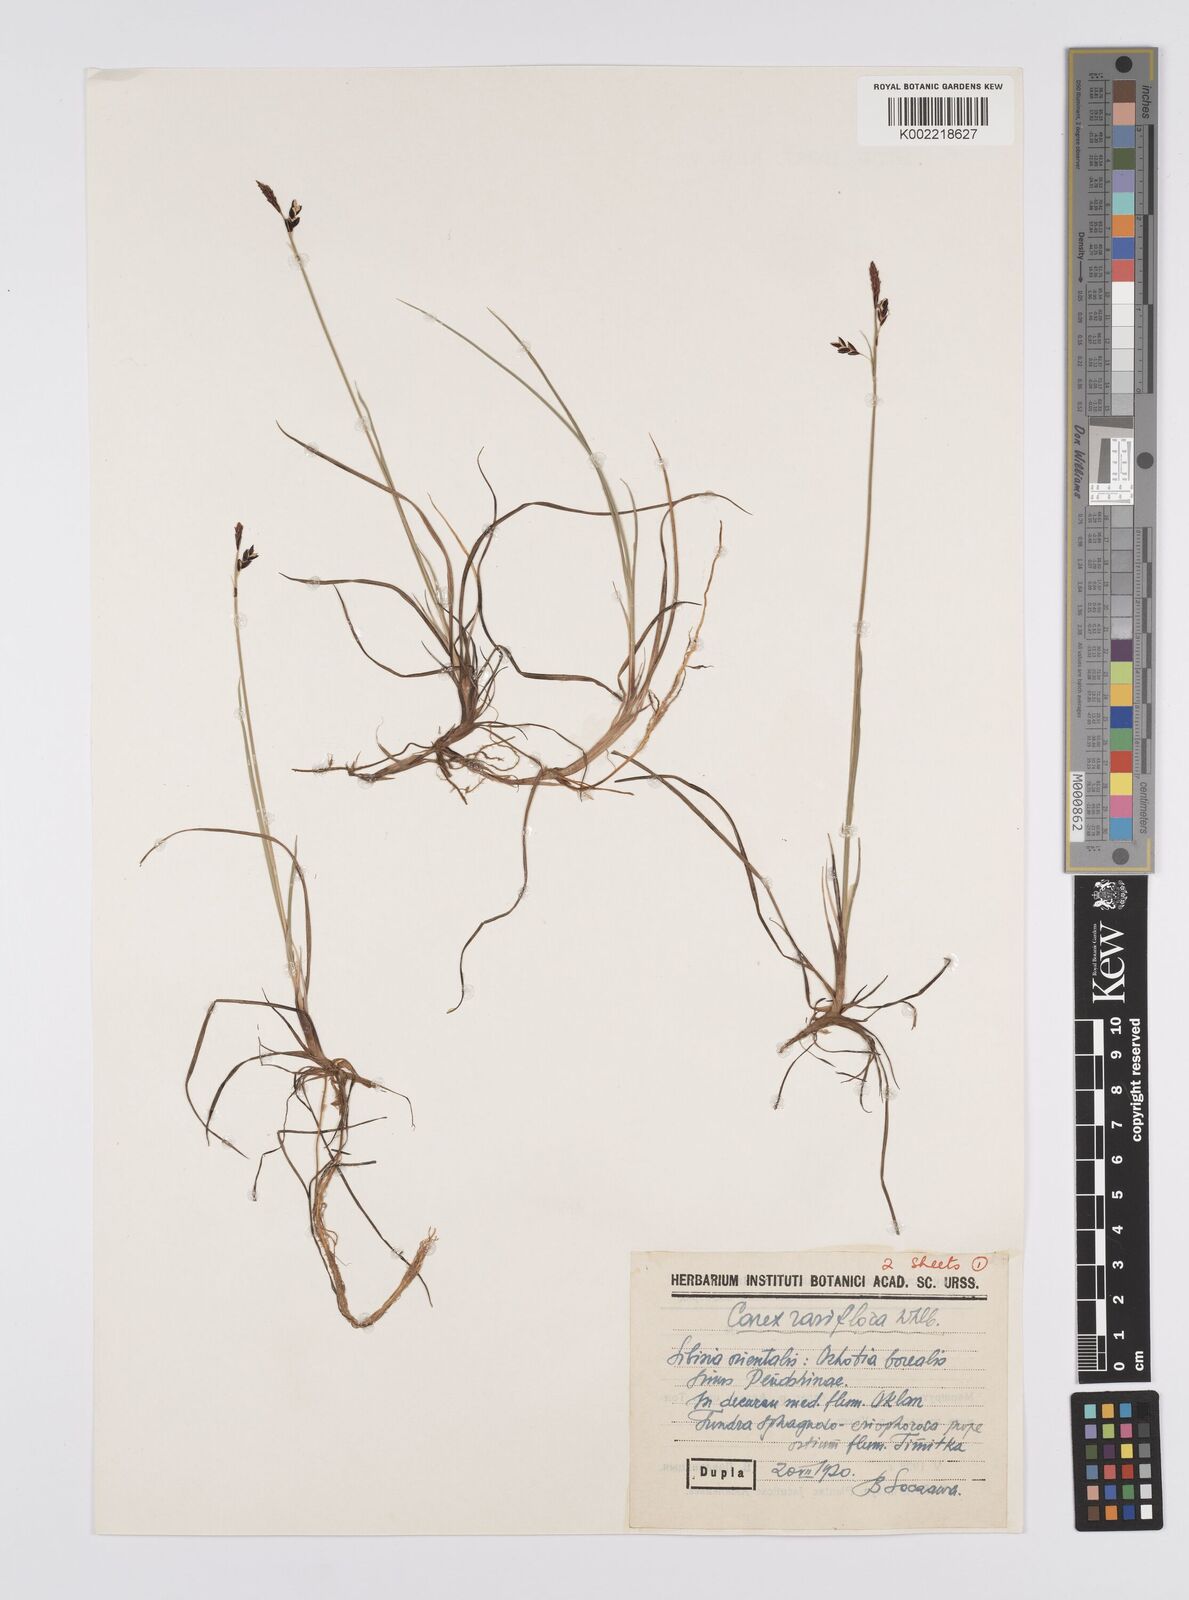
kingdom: Plantae
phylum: Tracheophyta
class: Liliopsida
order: Poales
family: Cyperaceae
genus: Carex
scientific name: Carex rariflora
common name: Loose-flowered alpine sedge
